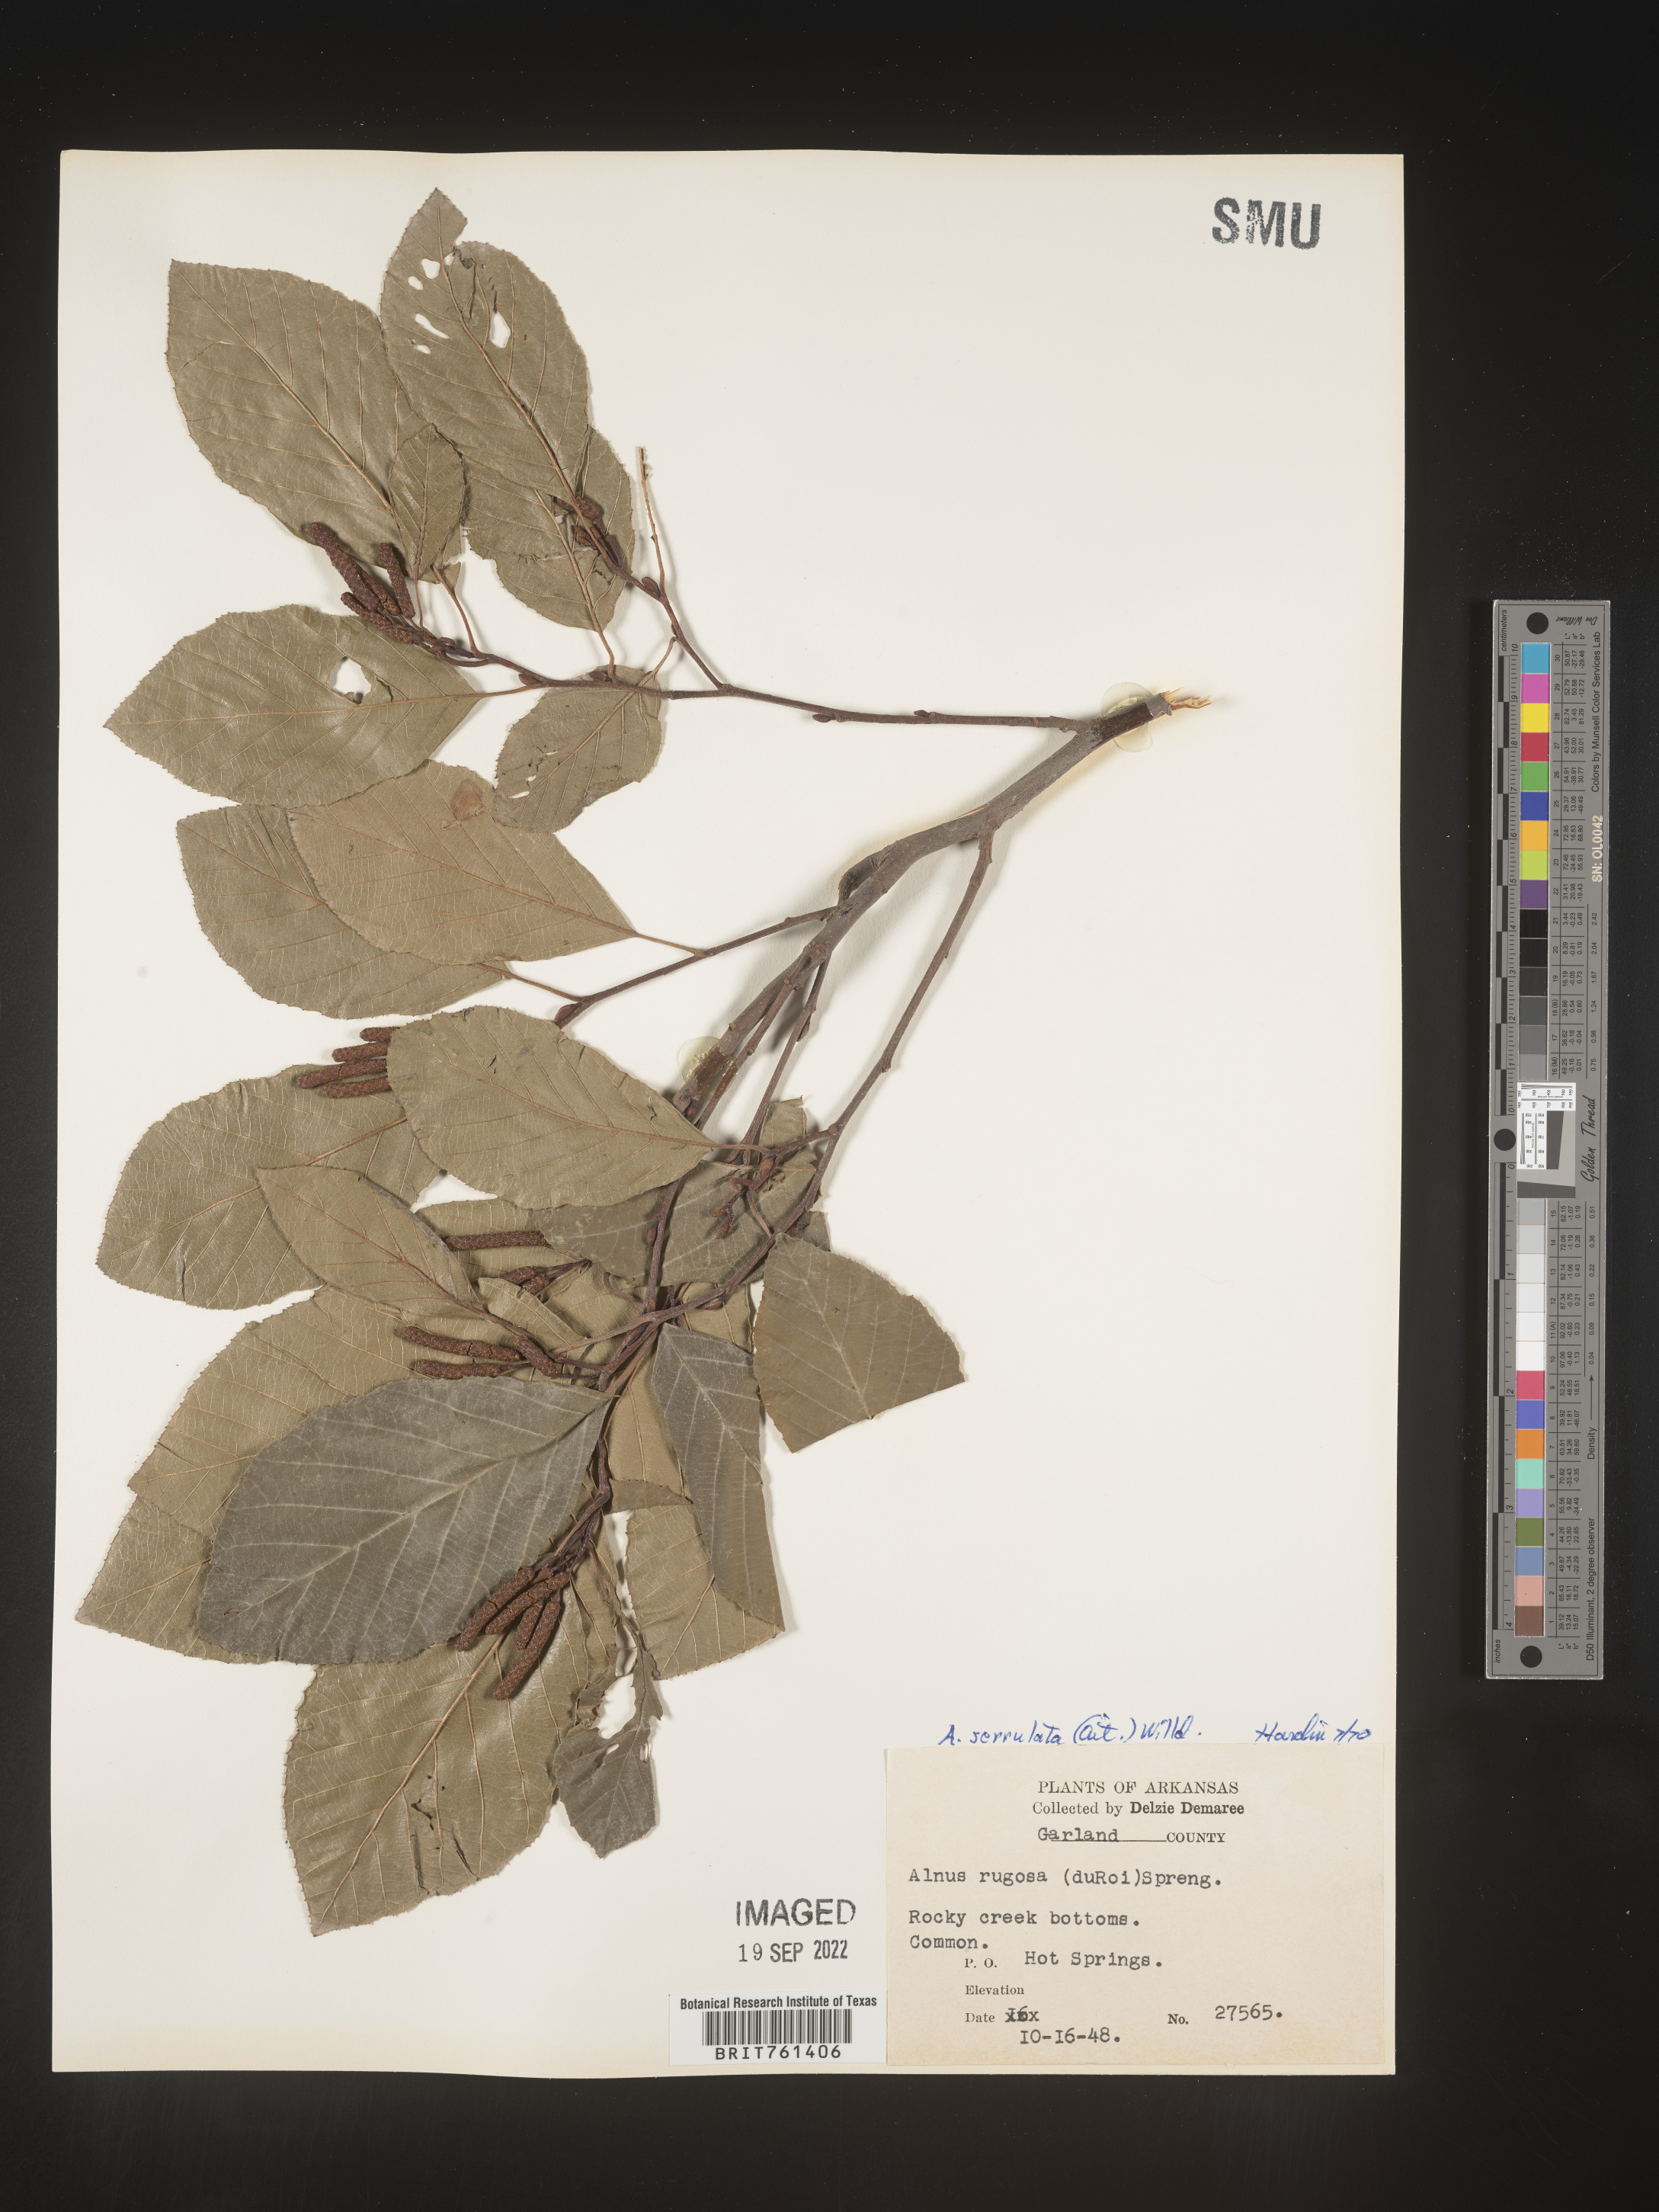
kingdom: Plantae
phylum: Tracheophyta
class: Magnoliopsida
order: Fagales
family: Betulaceae
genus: Alnus
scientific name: Alnus serrulata
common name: Hazel alder
